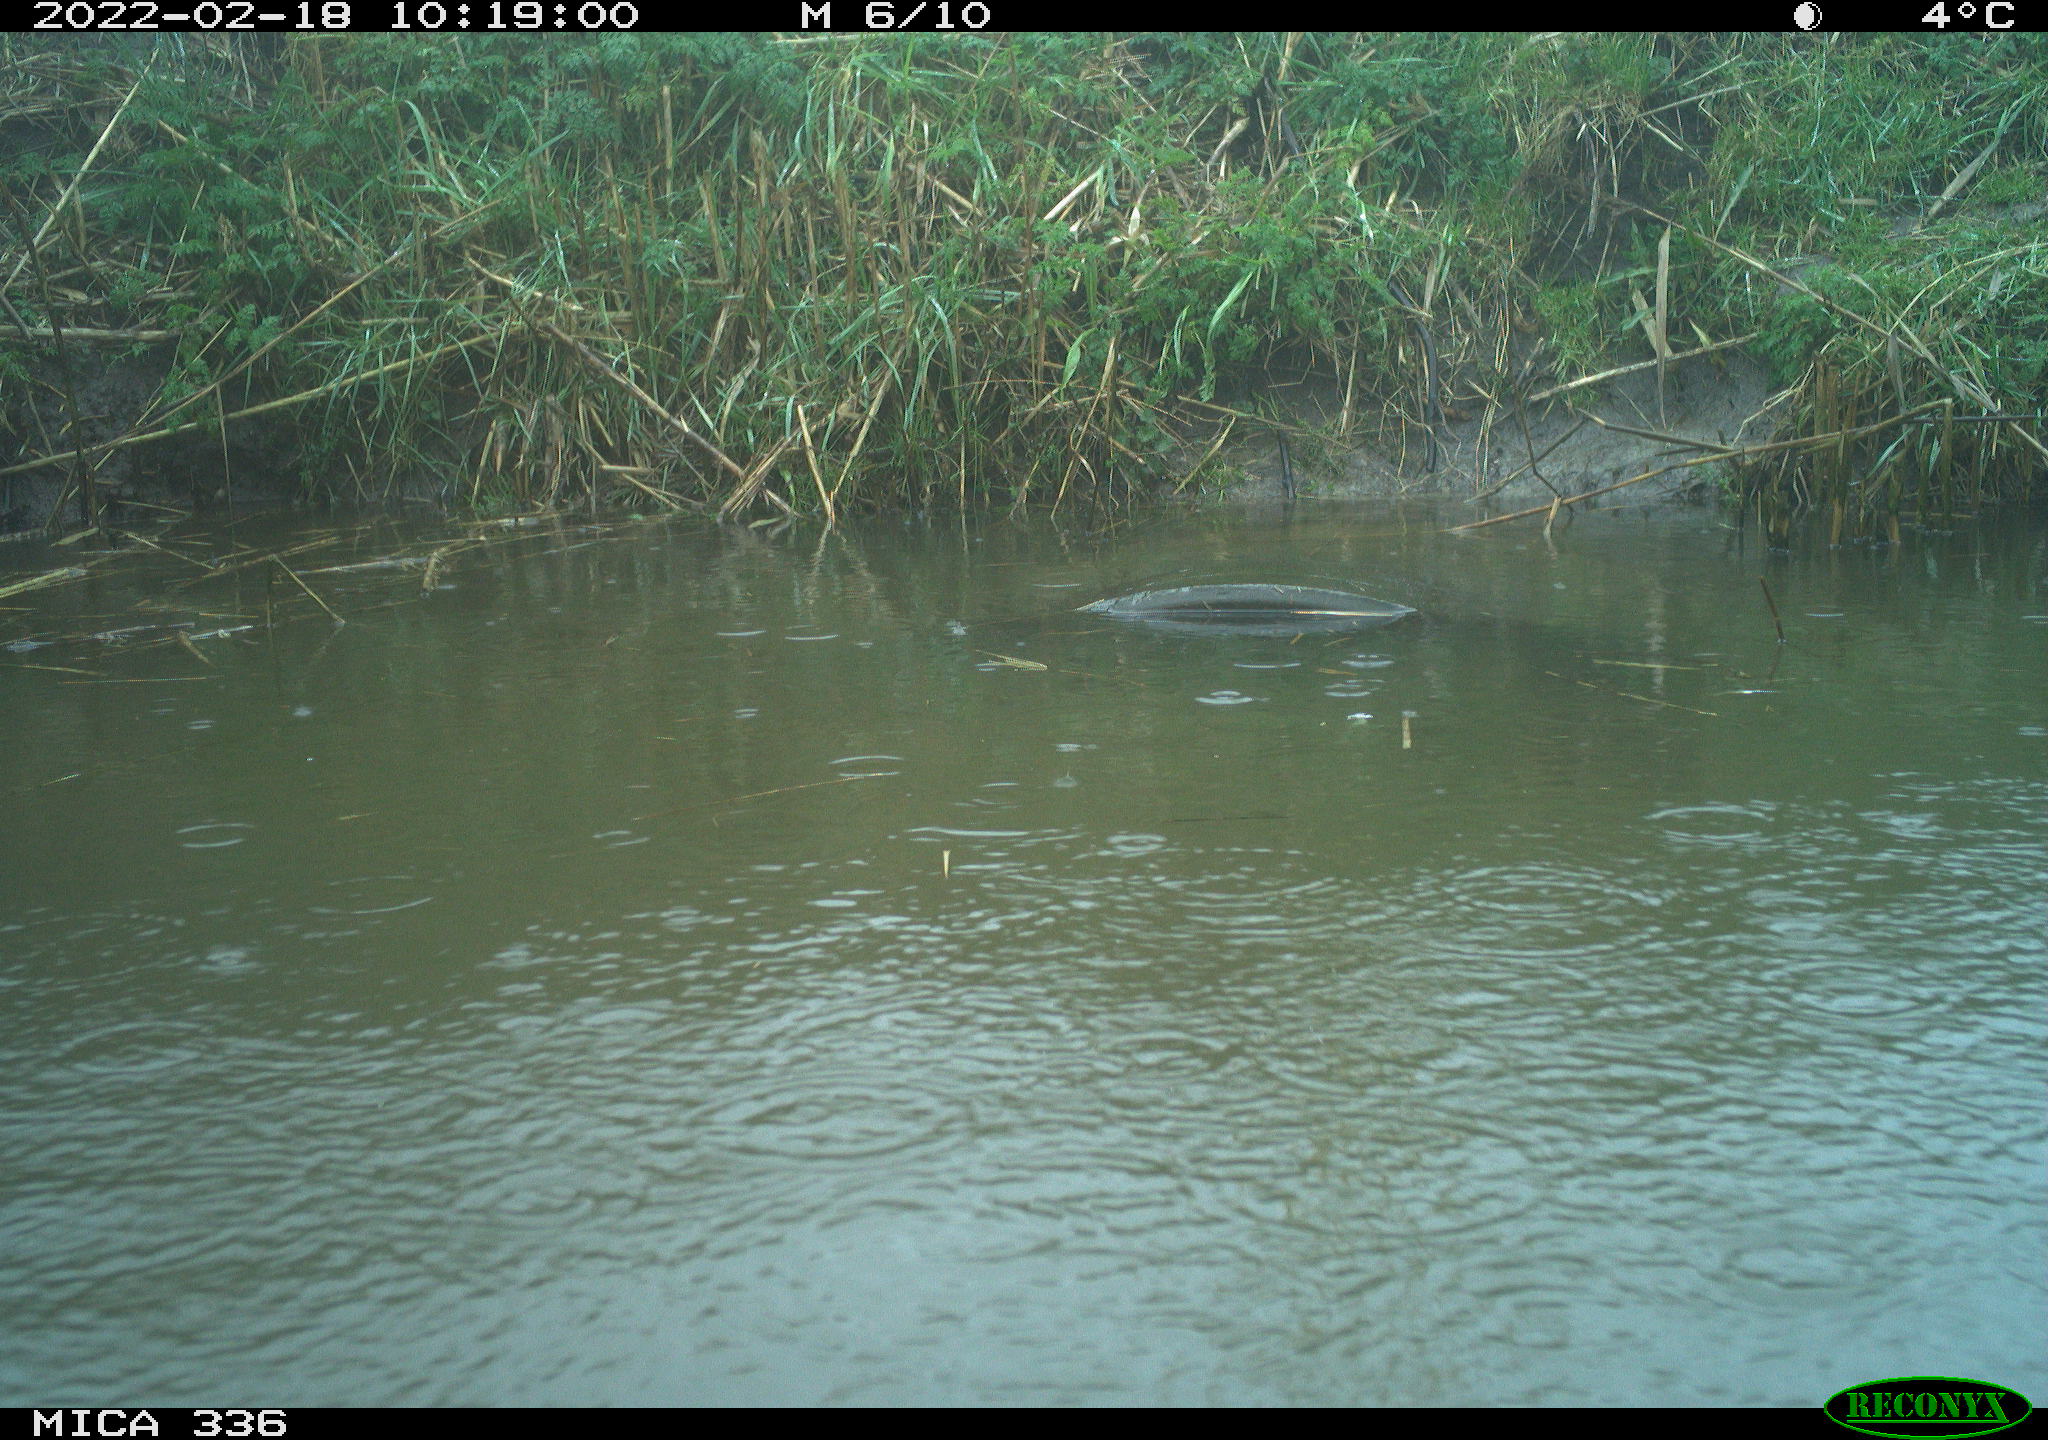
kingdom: Animalia
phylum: Chordata
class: Aves
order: Gruiformes
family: Rallidae
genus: Gallinula
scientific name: Gallinula chloropus
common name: Common moorhen
